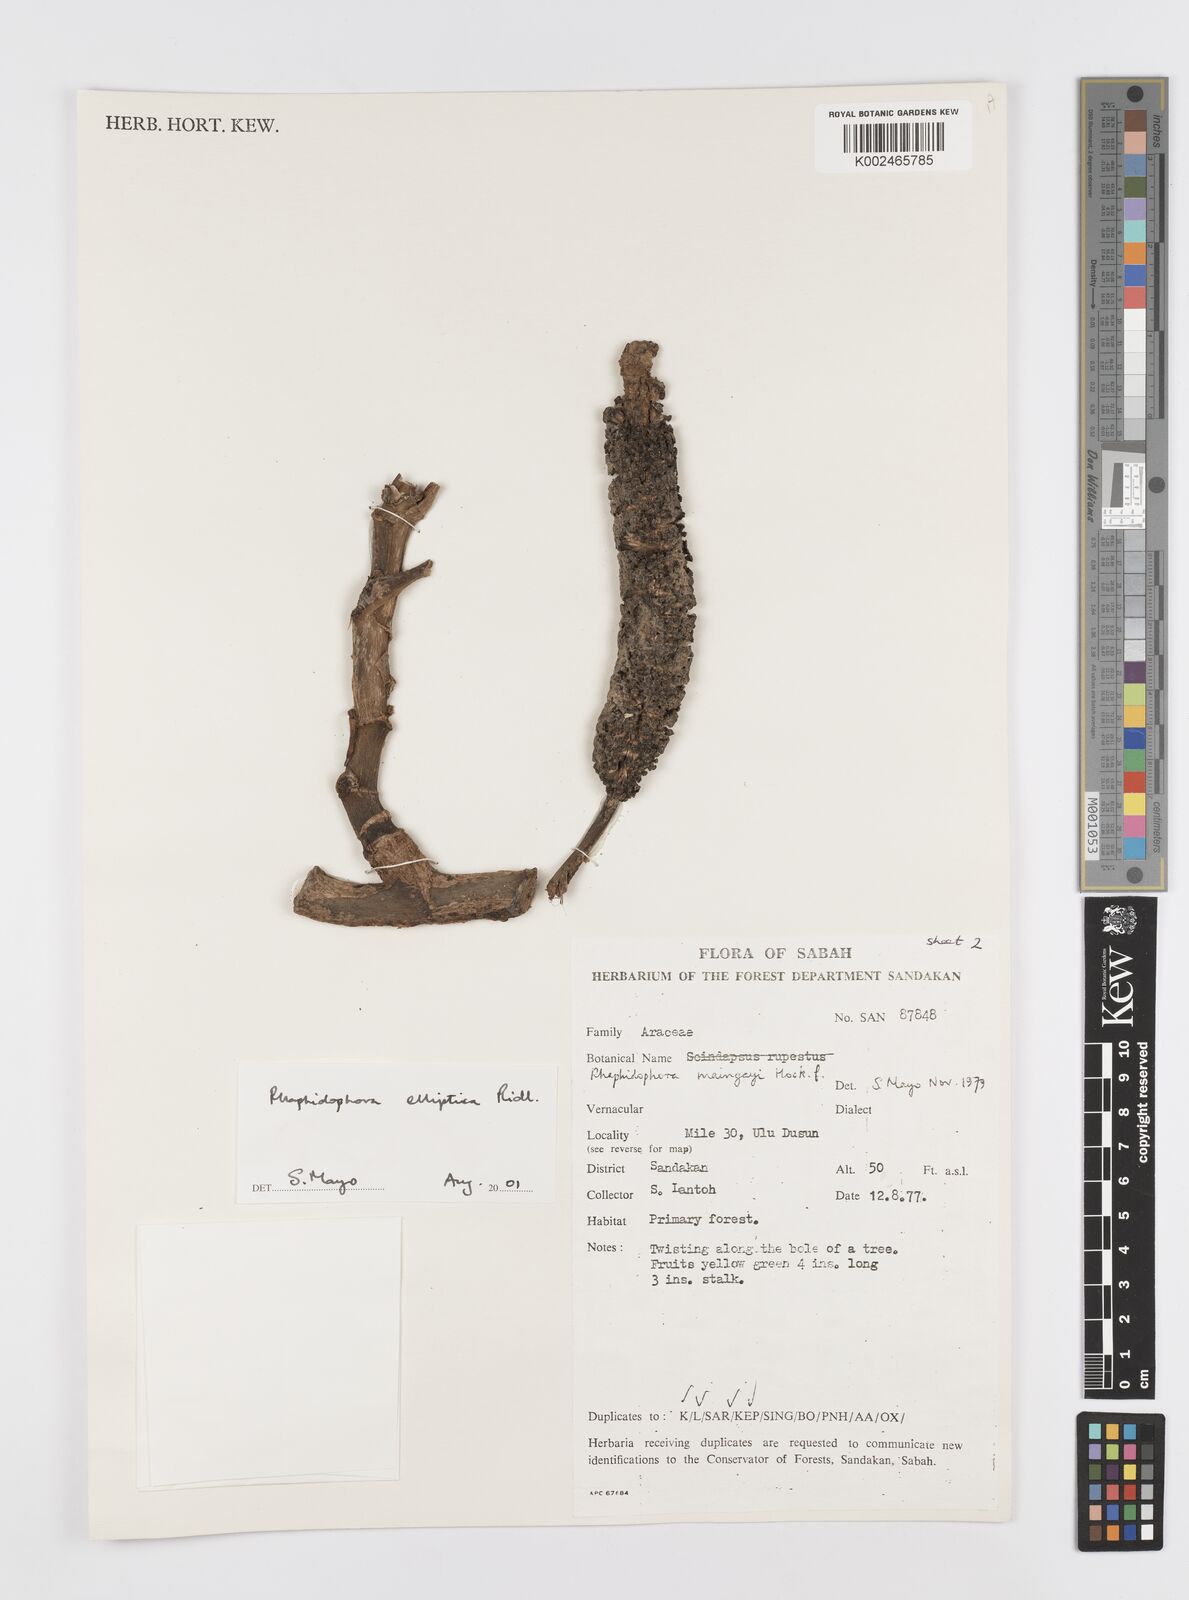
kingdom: Plantae
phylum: Tracheophyta
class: Liliopsida
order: Alismatales
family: Araceae
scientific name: Araceae
